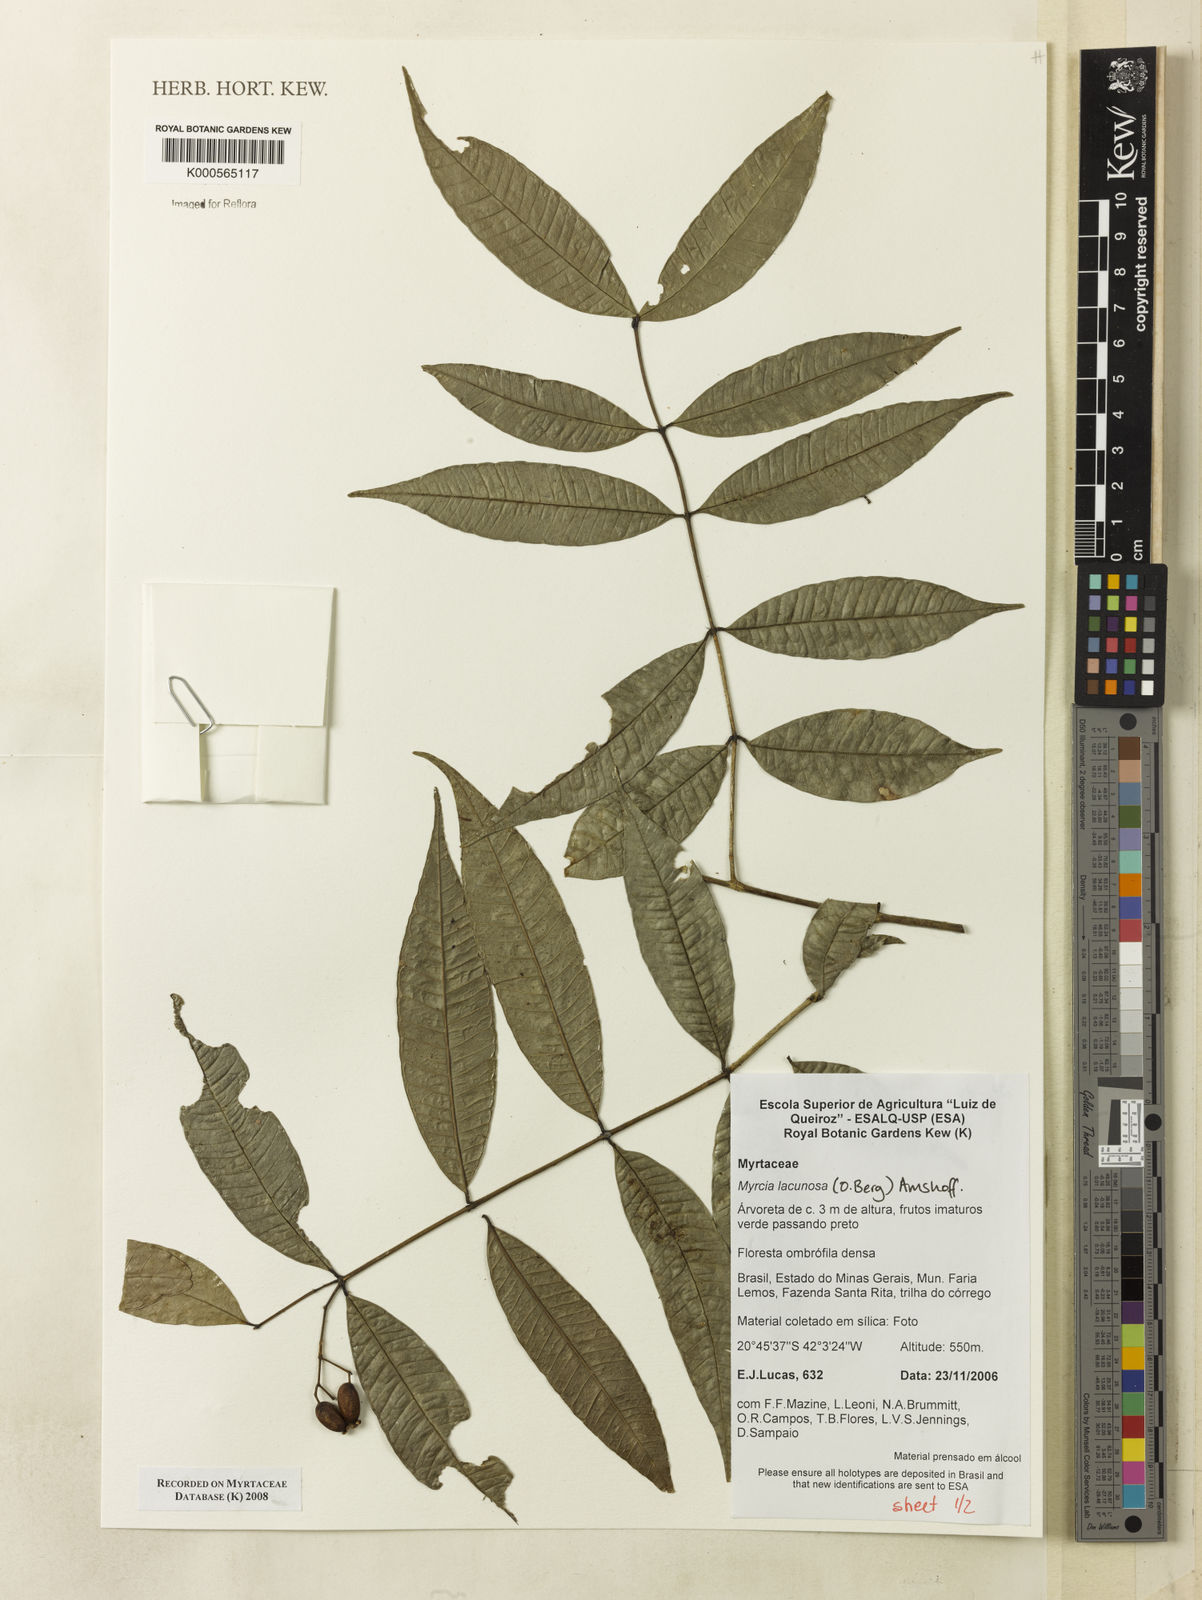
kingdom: Plantae
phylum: Tracheophyta
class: Magnoliopsida
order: Myrtales
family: Myrtaceae
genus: Myrcia
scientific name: Myrcia lacunosa
